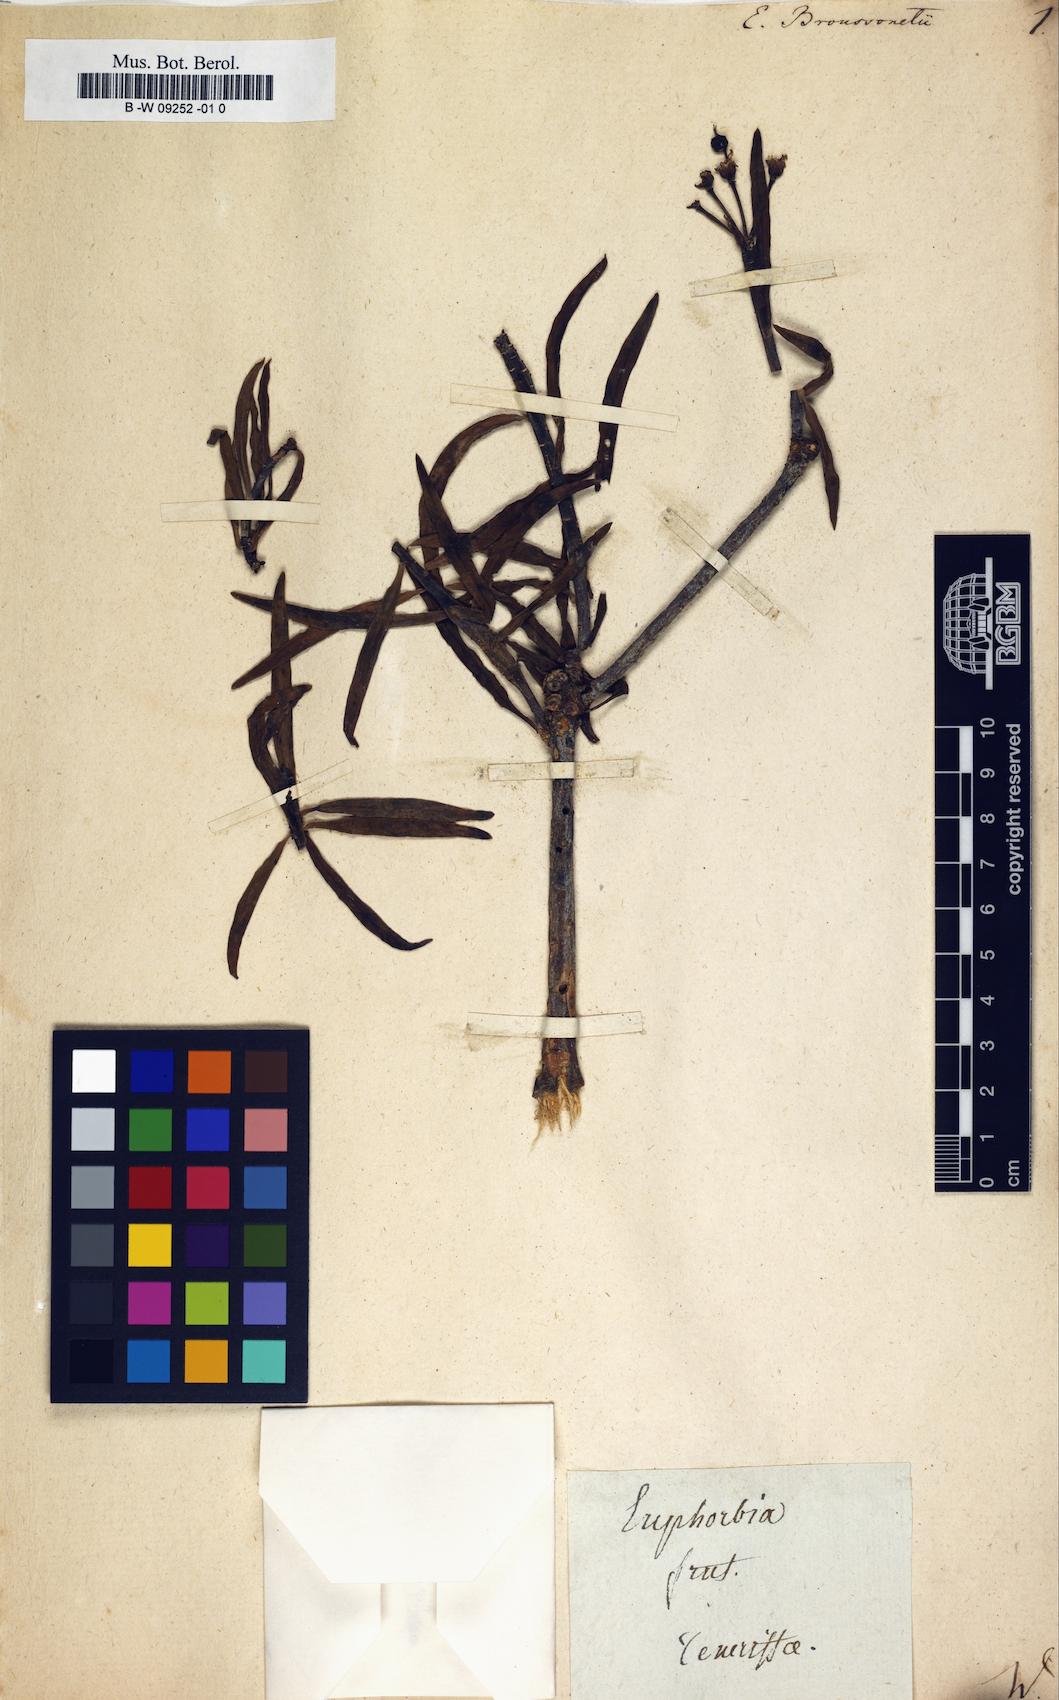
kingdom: Plantae
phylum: Tracheophyta
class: Magnoliopsida
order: Malpighiales
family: Euphorbiaceae
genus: Euphorbia
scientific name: Euphorbia lamarckii
